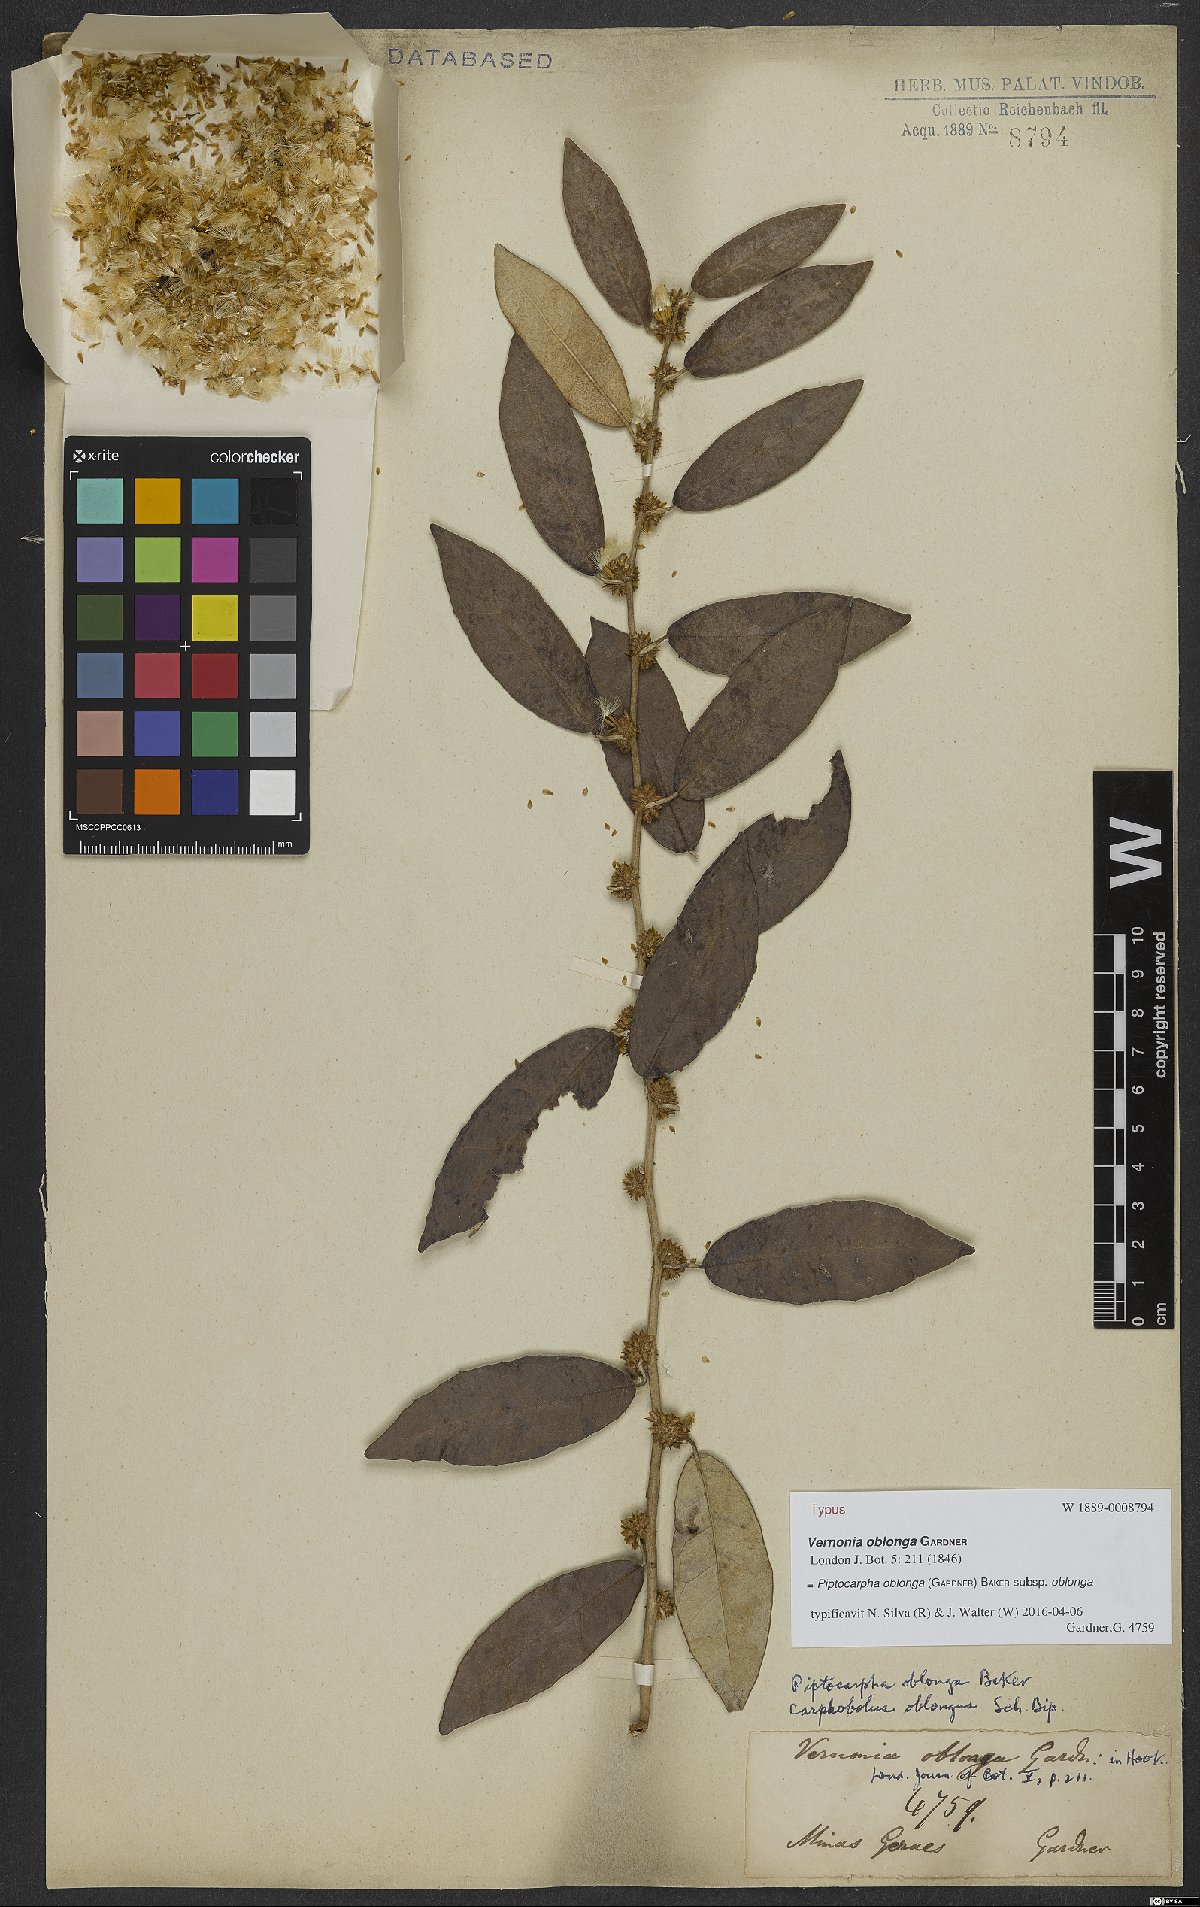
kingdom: Plantae
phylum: Tracheophyta
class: Magnoliopsida
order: Asterales
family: Asteraceae
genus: Piptocarpha
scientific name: Piptocarpha oblonga
